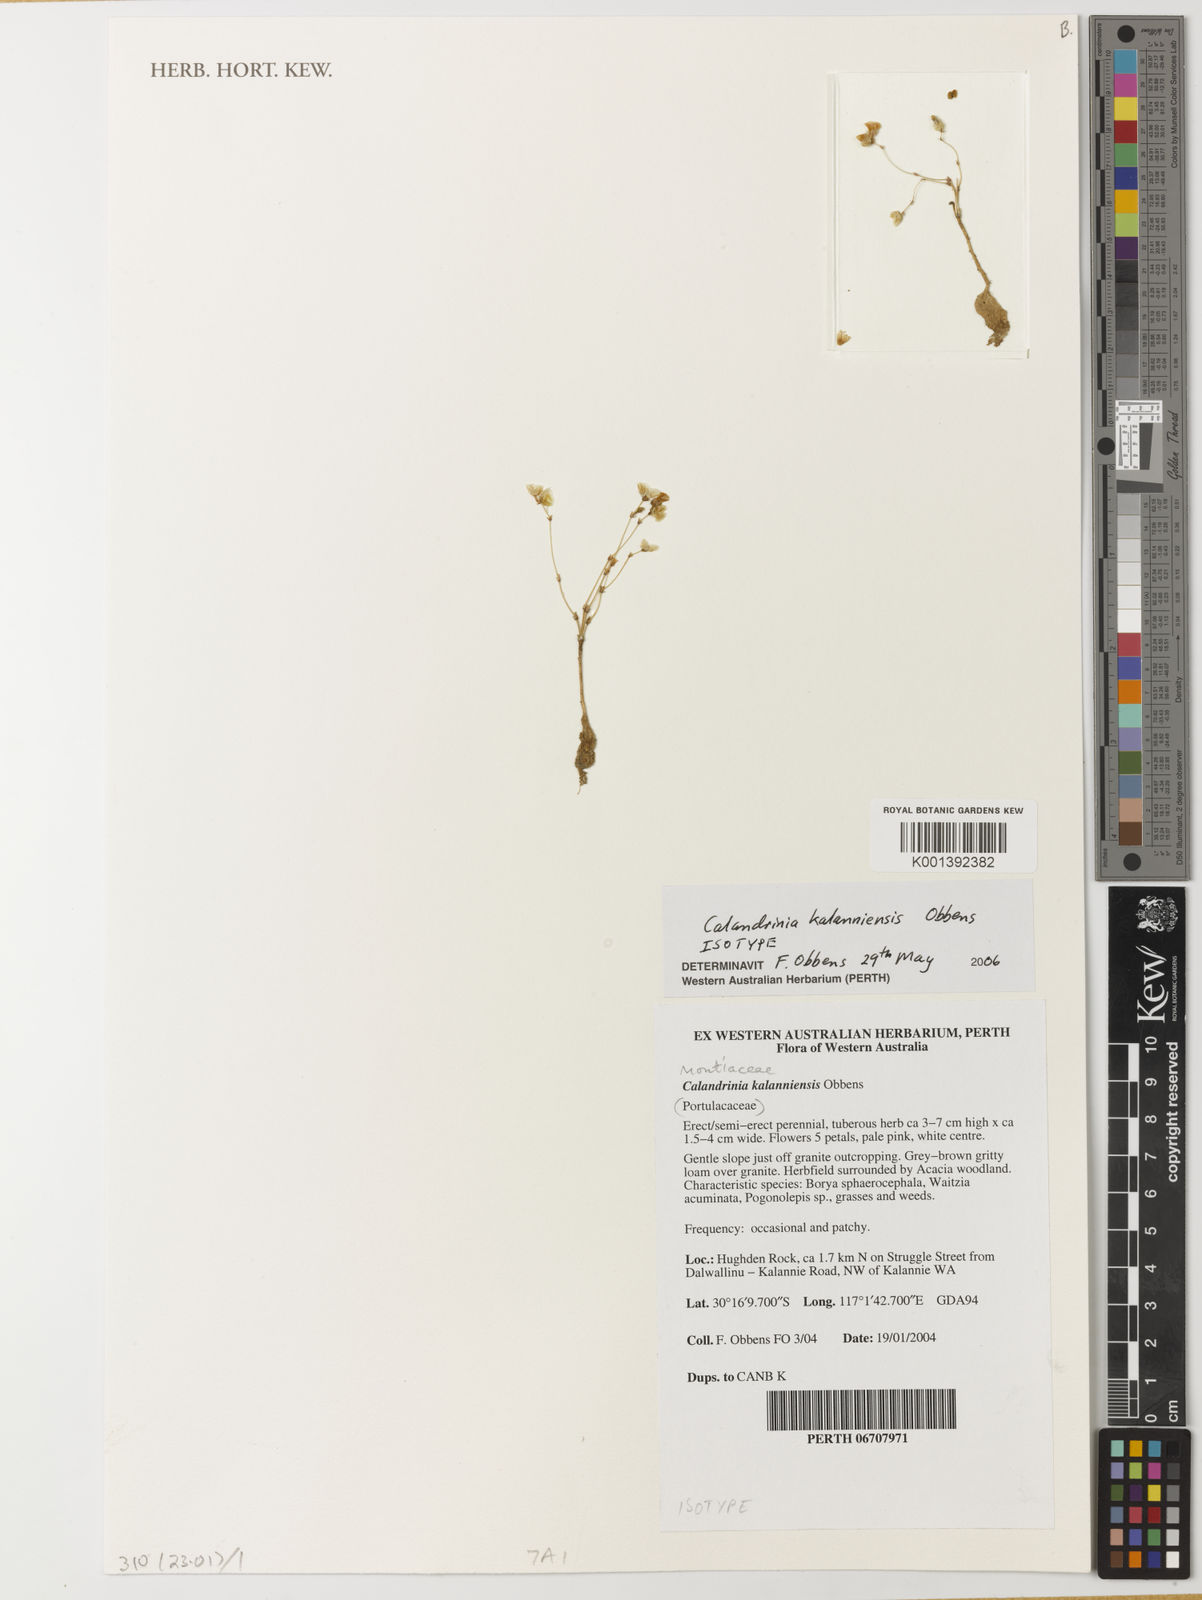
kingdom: Plantae
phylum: Tracheophyta
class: Magnoliopsida
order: Caryophyllales
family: Montiaceae
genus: Rumicastrum
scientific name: Rumicastrum kalanniense
